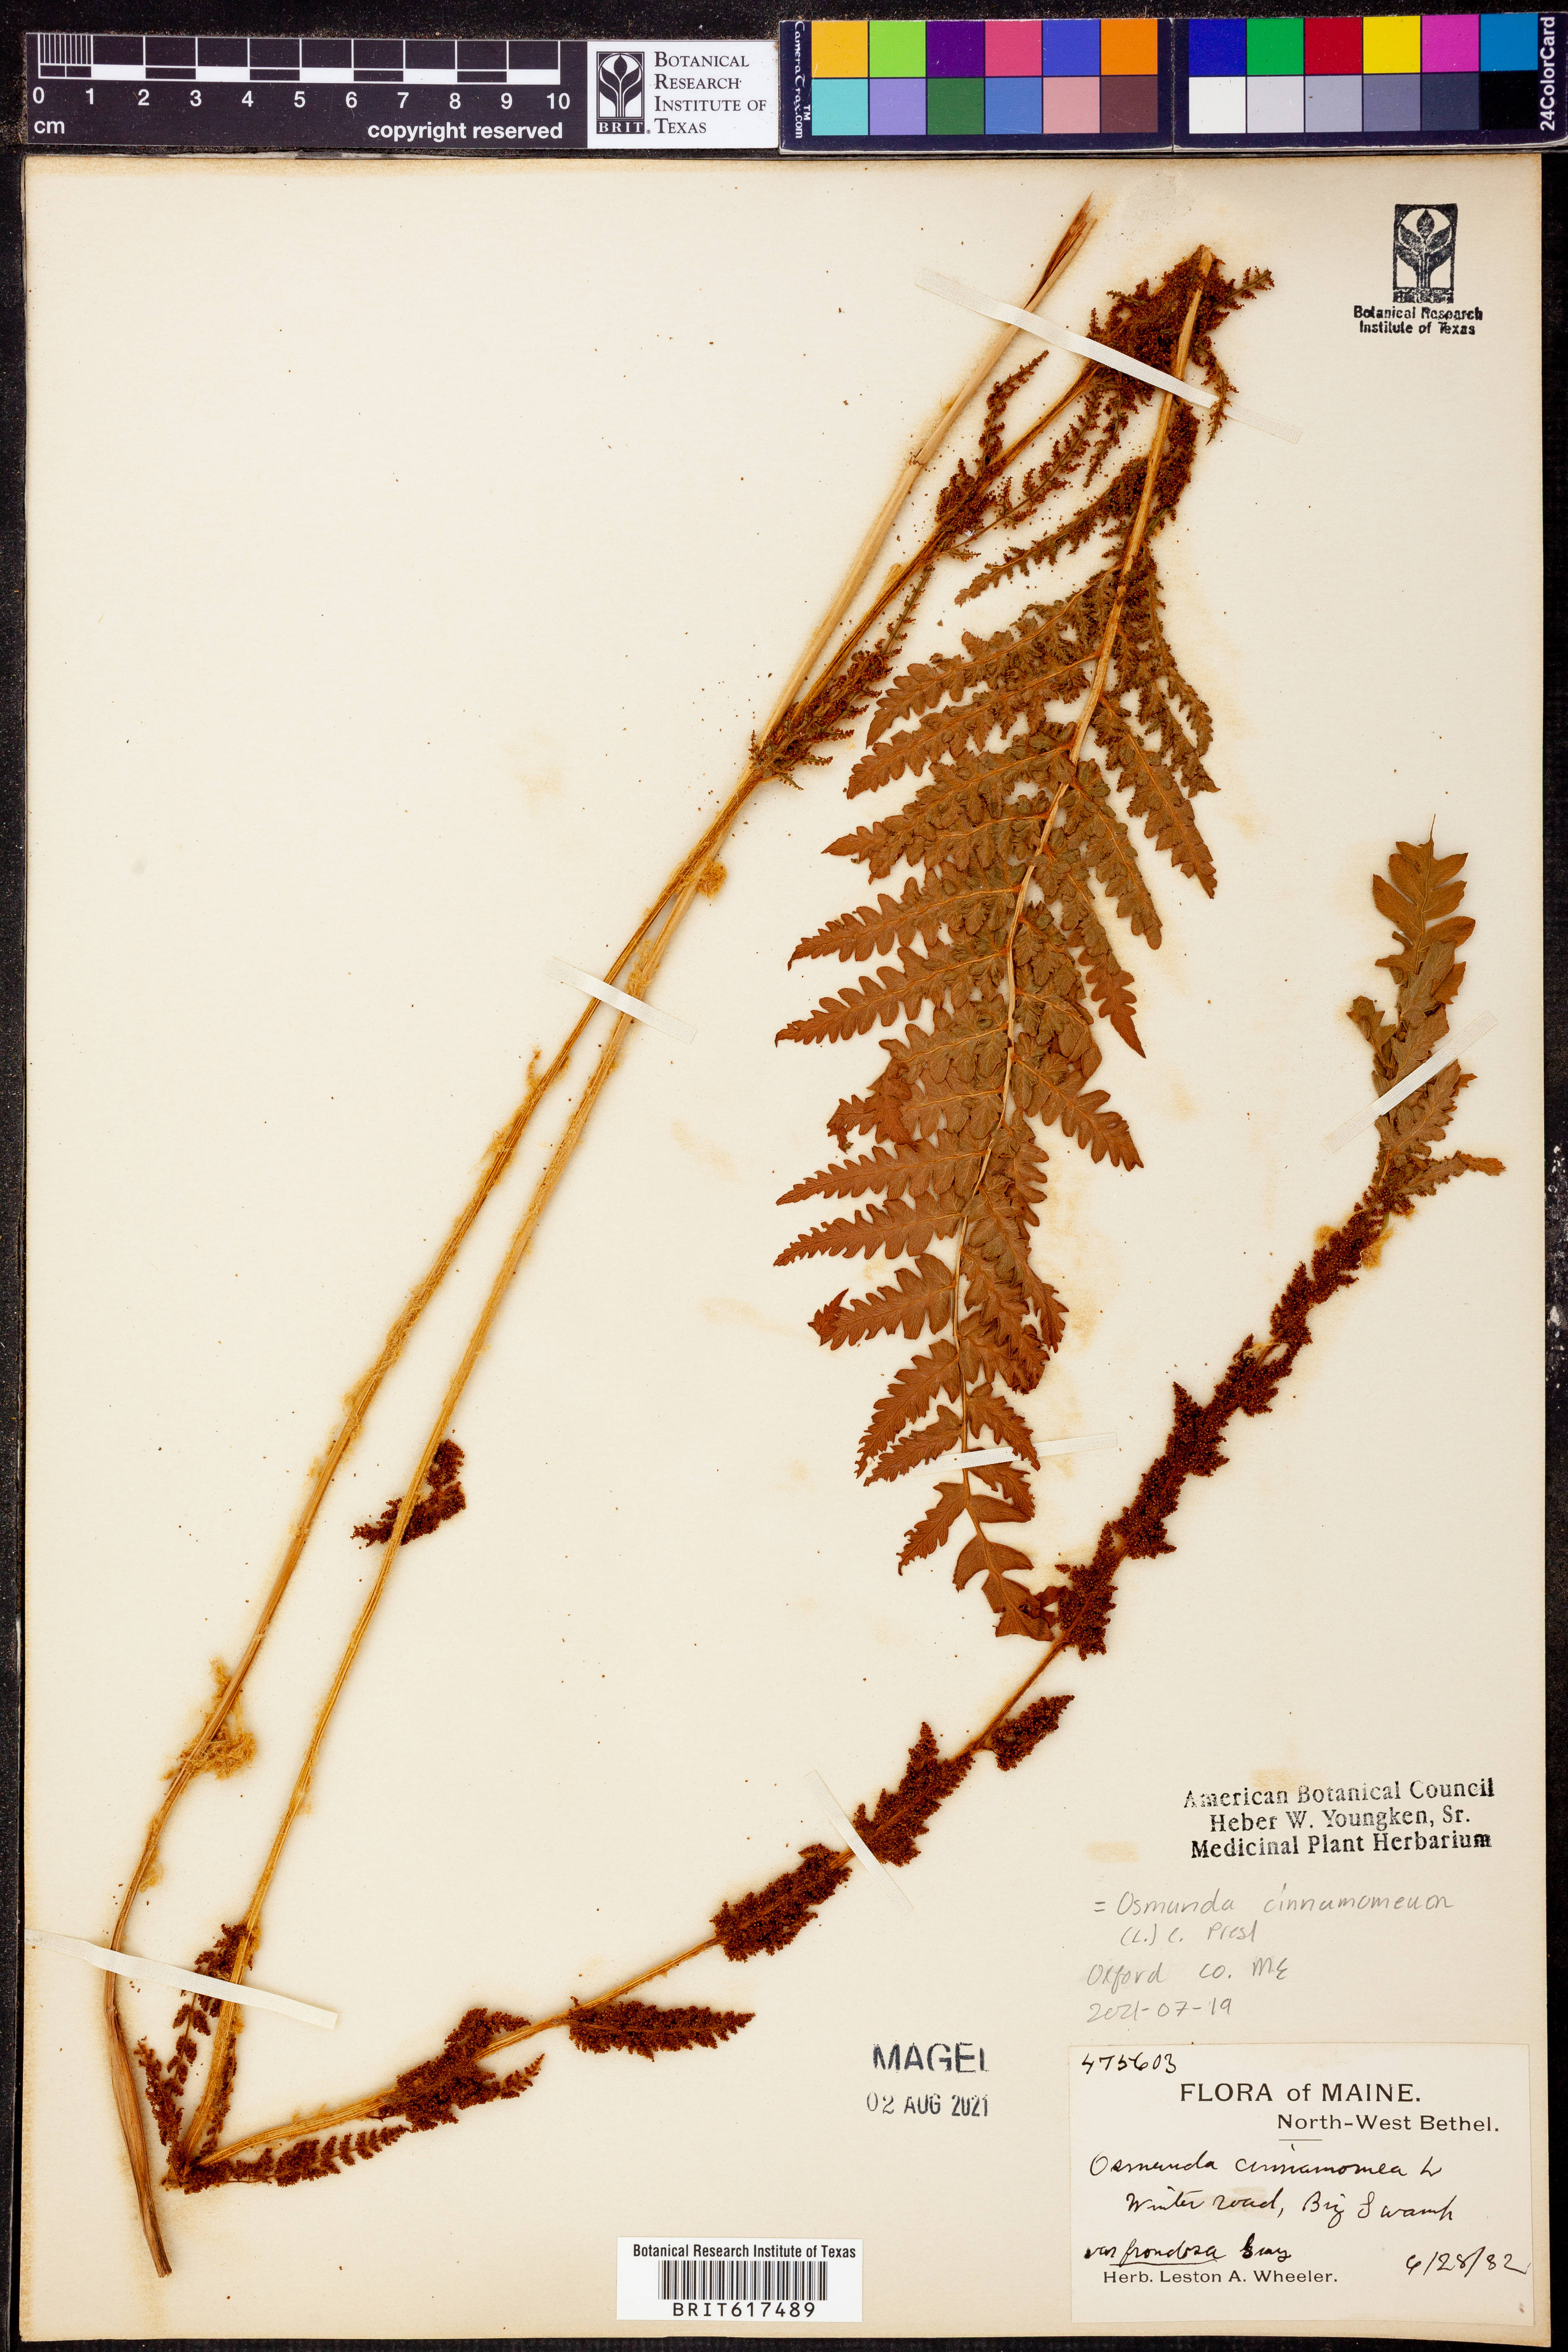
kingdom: Plantae
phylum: Tracheophyta
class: Polypodiopsida
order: Osmundales
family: Osmundaceae
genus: Osmundastrum
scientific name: Osmundastrum cinnamomeum
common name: Cinnamon fern
